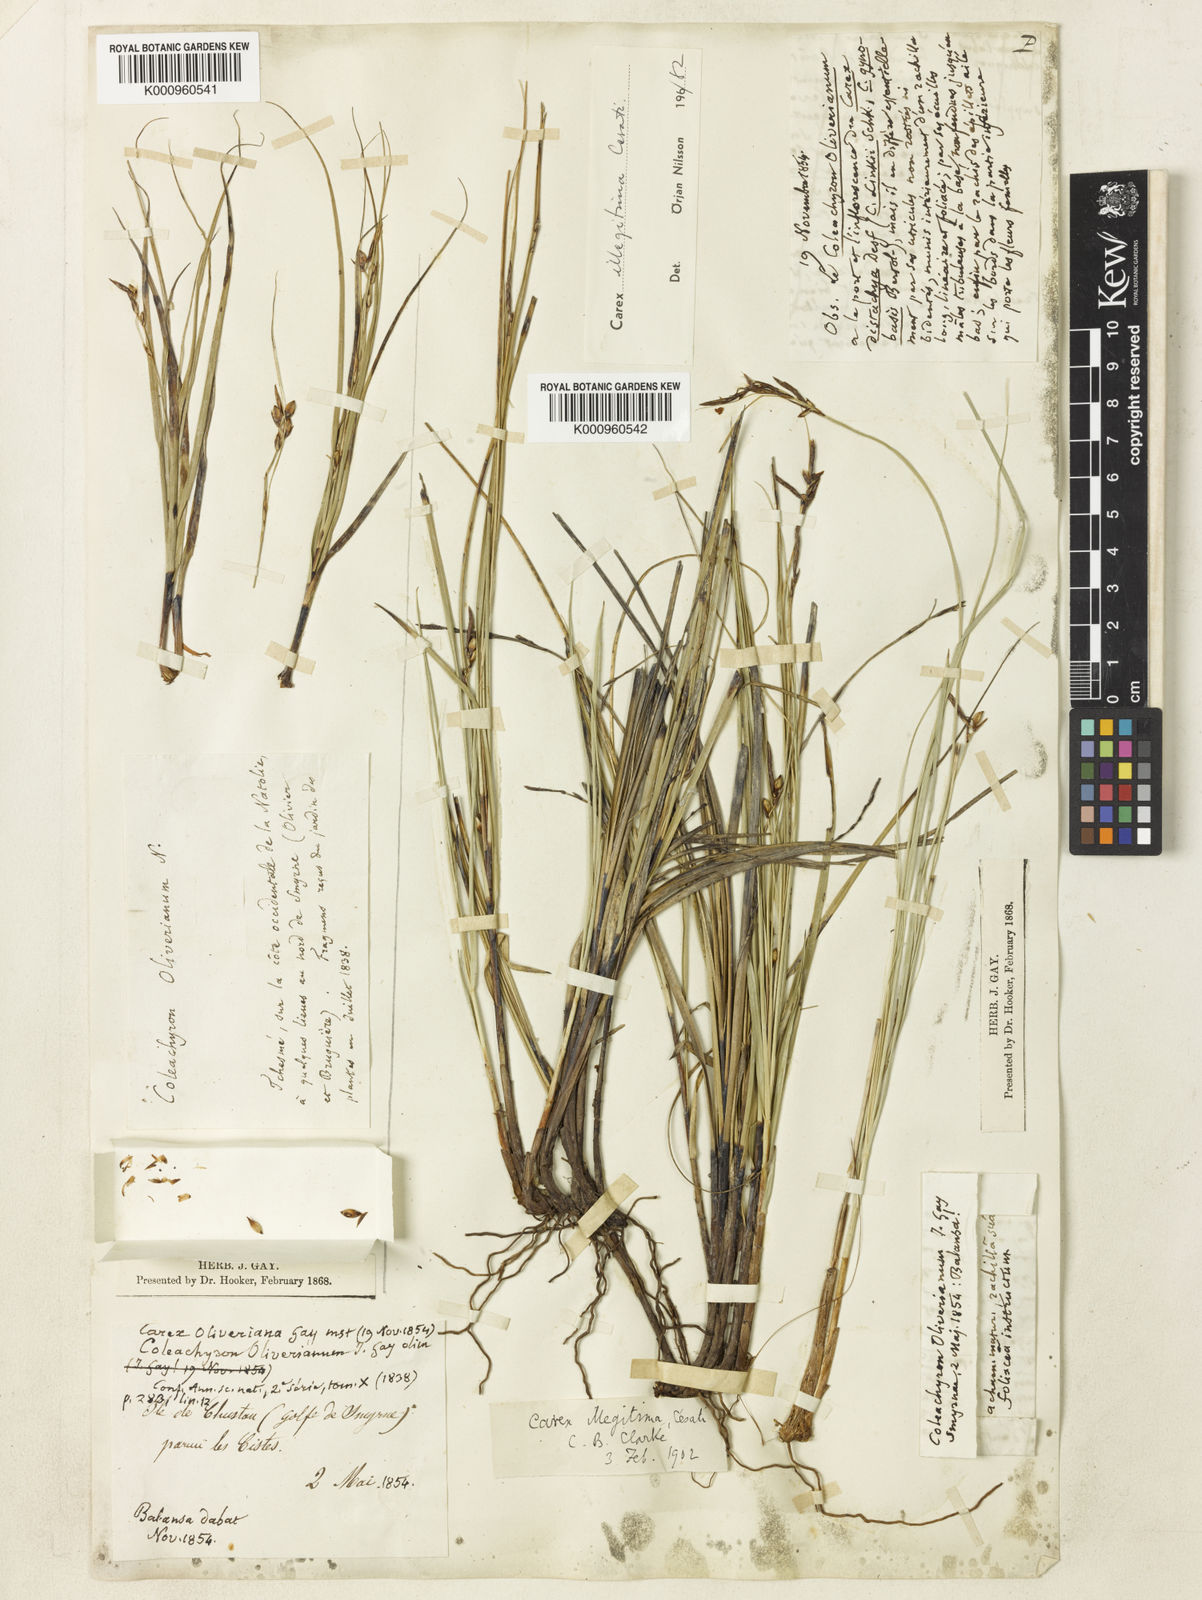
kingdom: Plantae
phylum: Tracheophyta
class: Liliopsida
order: Poales
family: Cyperaceae
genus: Carex
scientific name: Carex illegitima
